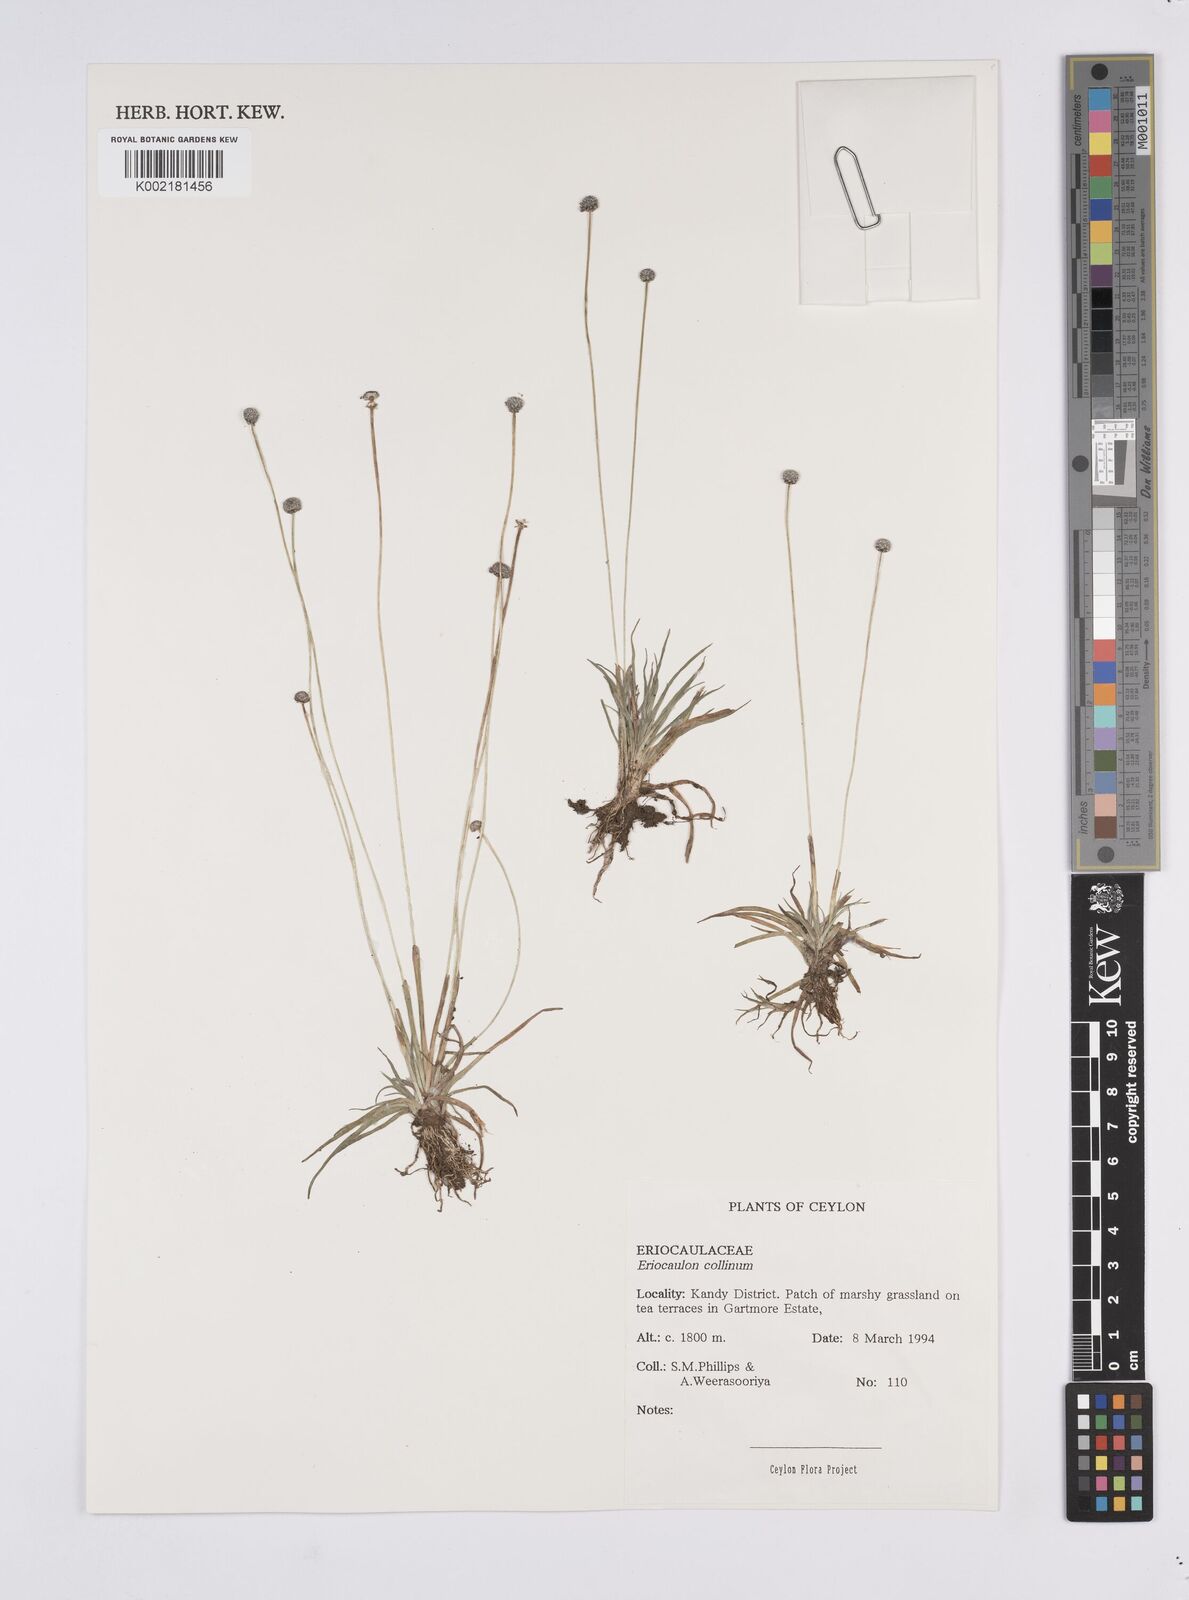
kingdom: Plantae
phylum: Tracheophyta
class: Liliopsida
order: Poales
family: Eriocaulaceae
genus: Eriocaulon
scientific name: Eriocaulon odoratum
